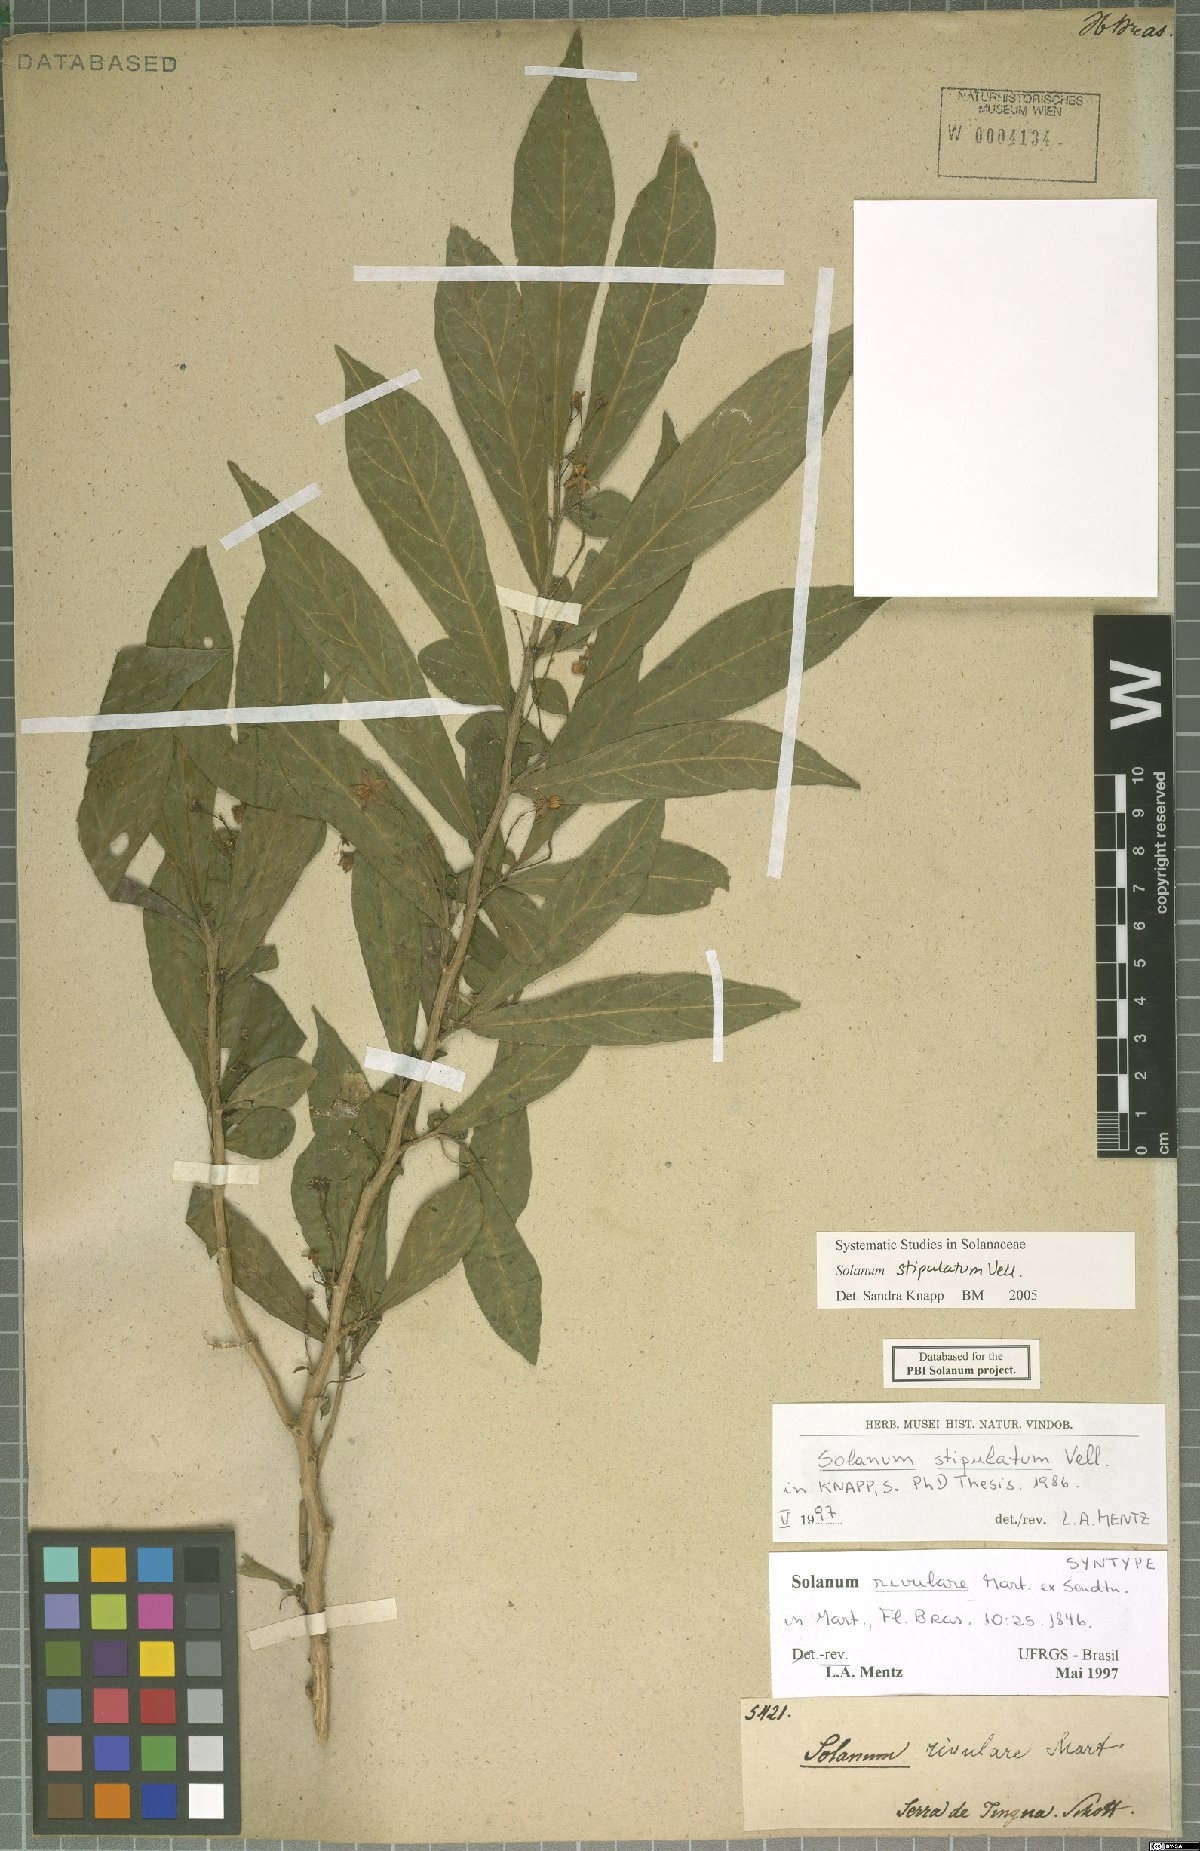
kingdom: Plantae
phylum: Tracheophyta
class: Magnoliopsida
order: Solanales
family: Solanaceae
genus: Solanum
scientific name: Solanum stipulatum
